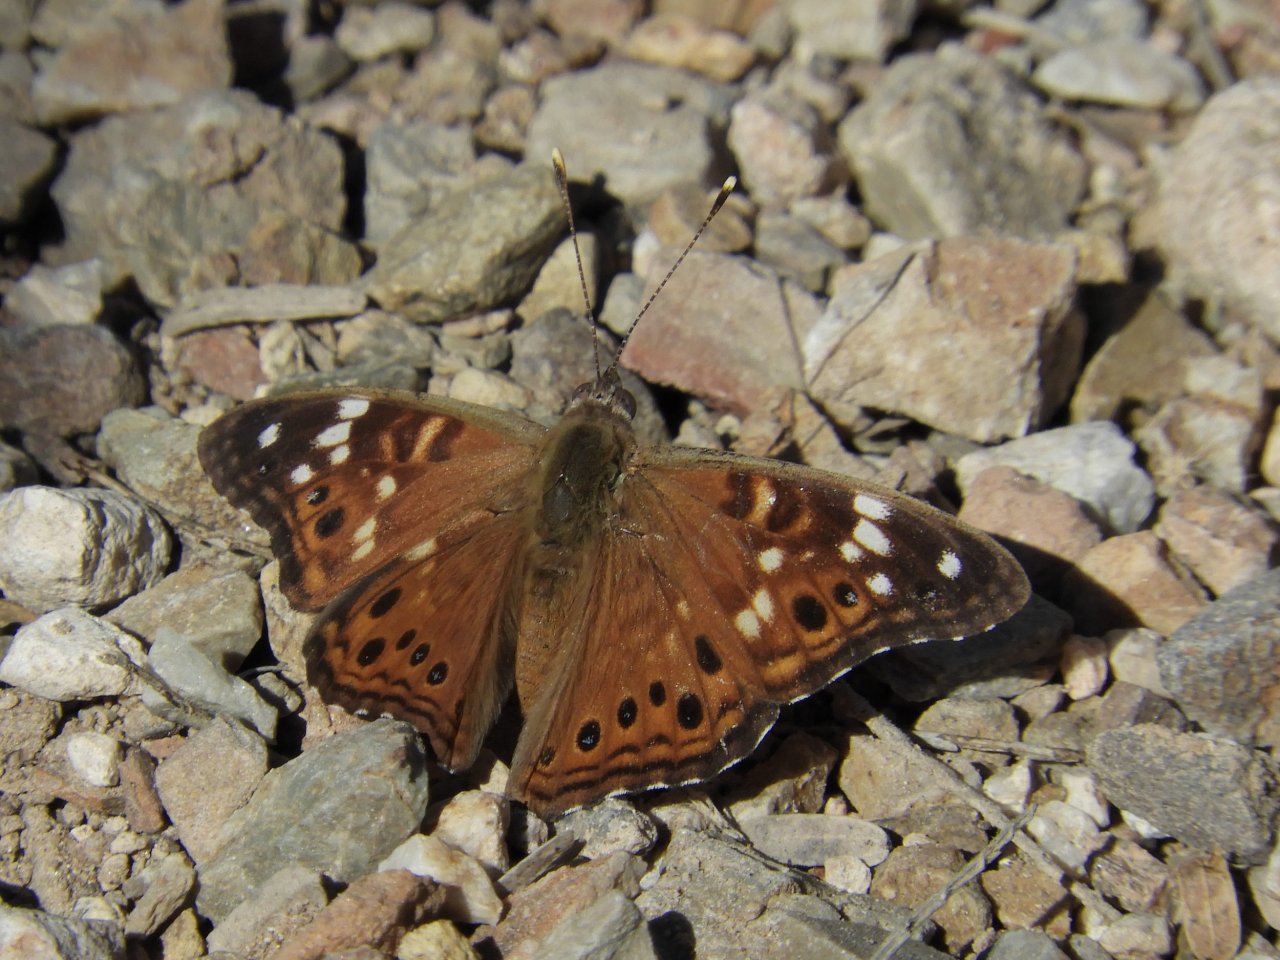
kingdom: Animalia
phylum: Arthropoda
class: Insecta
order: Lepidoptera
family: Nymphalidae
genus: Asterocampa
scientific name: Asterocampa leilia
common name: Empress Leilia
